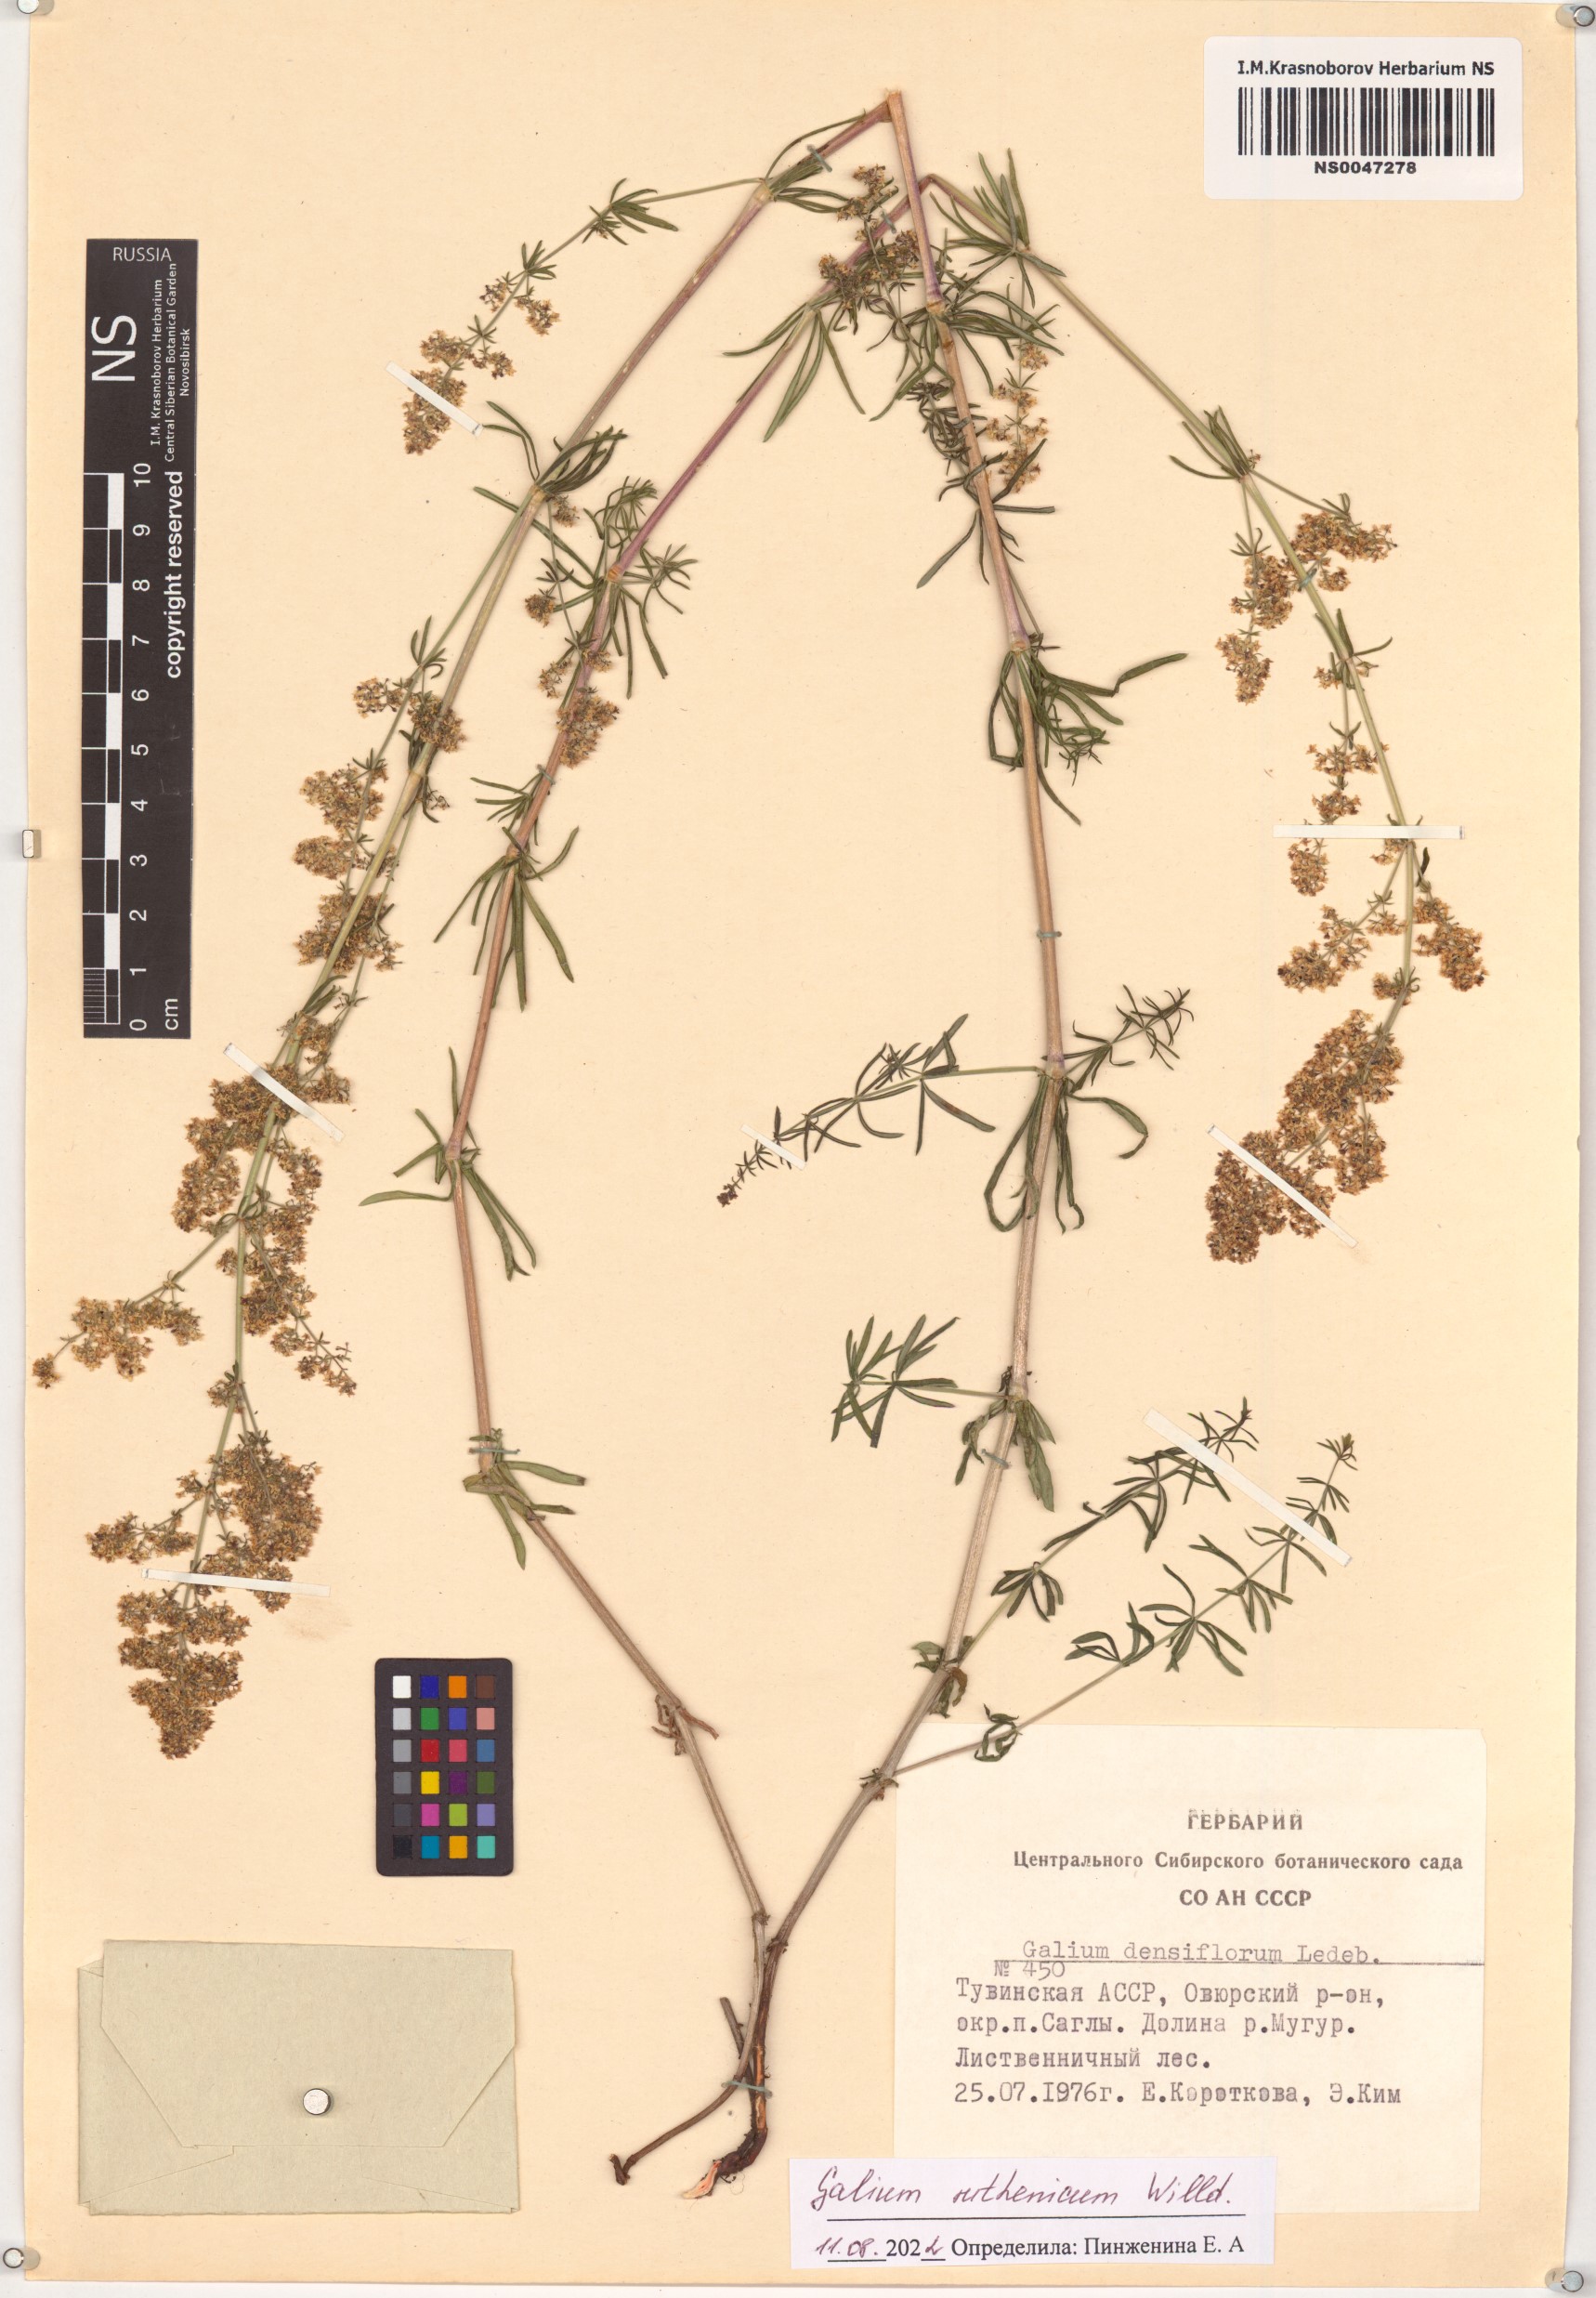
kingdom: Plantae
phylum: Tracheophyta
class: Magnoliopsida
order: Gentianales
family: Rubiaceae
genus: Galium
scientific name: Galium verum
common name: Lady's bedstraw
